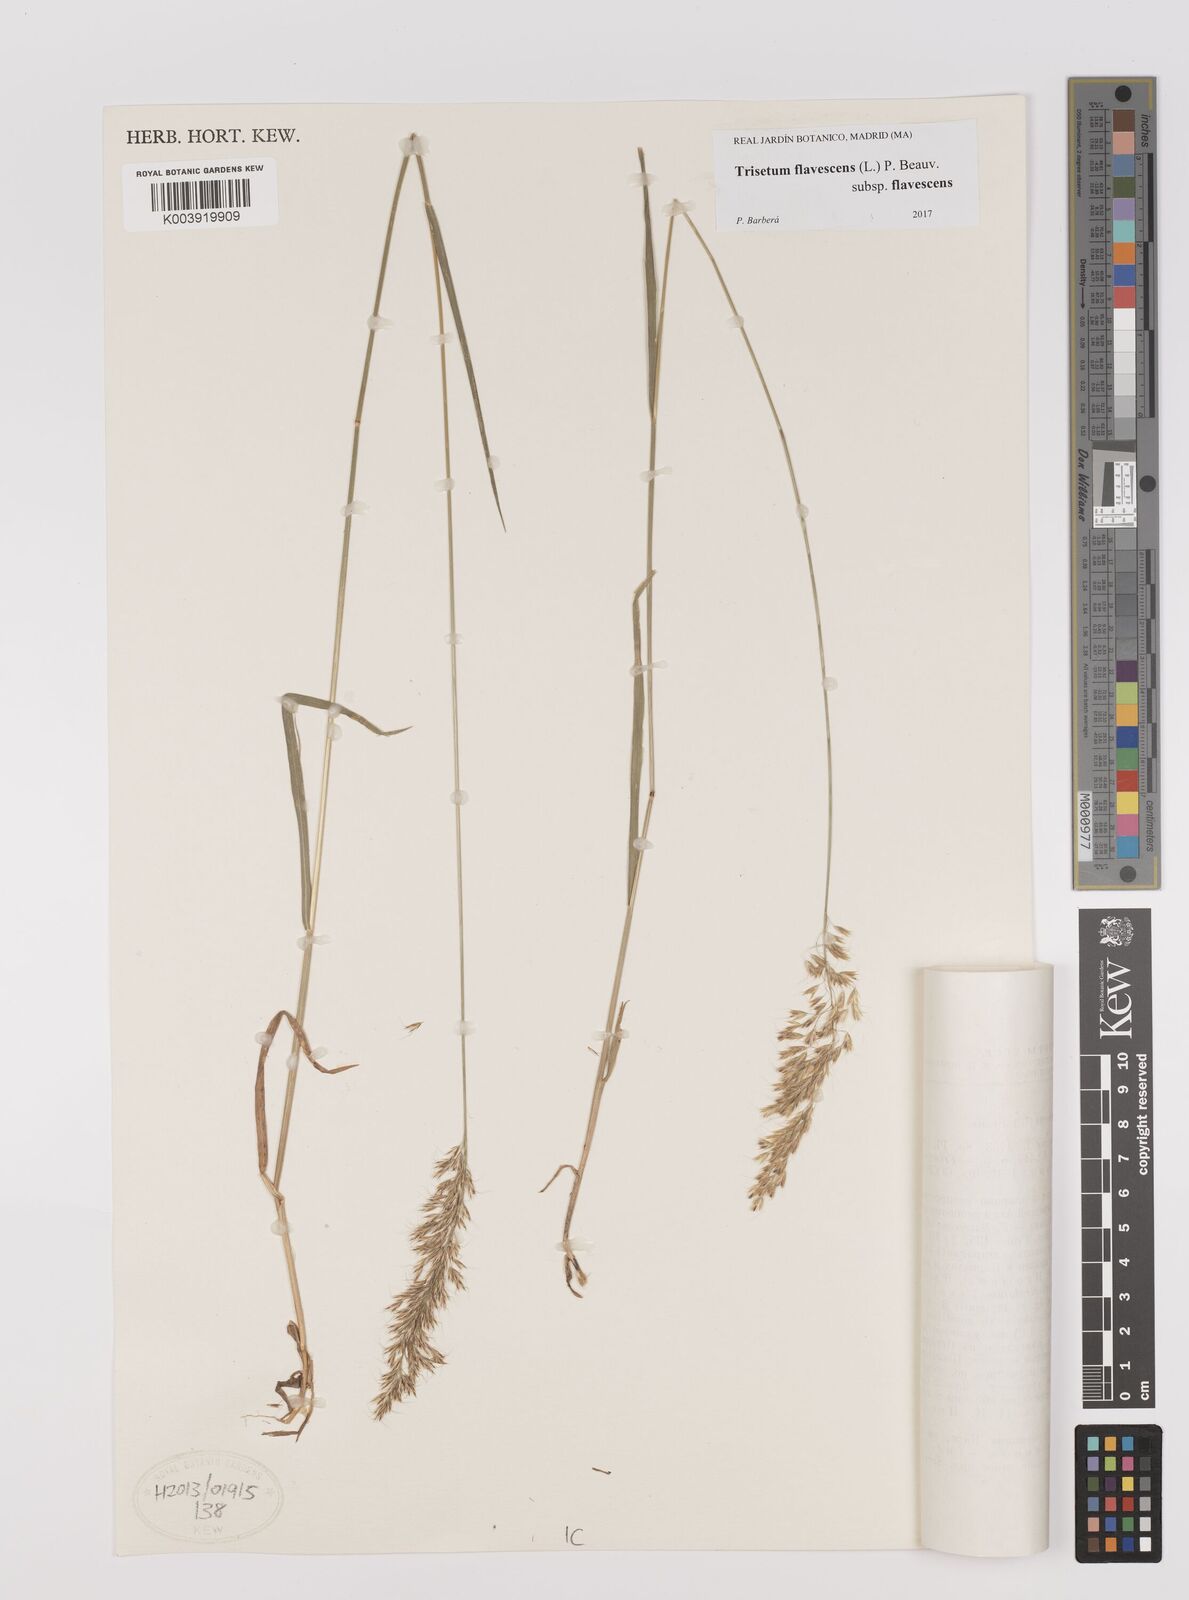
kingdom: Plantae
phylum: Tracheophyta
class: Liliopsida
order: Poales
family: Poaceae
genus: Trisetum
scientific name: Trisetum flavescens
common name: Yellow oat-grass
